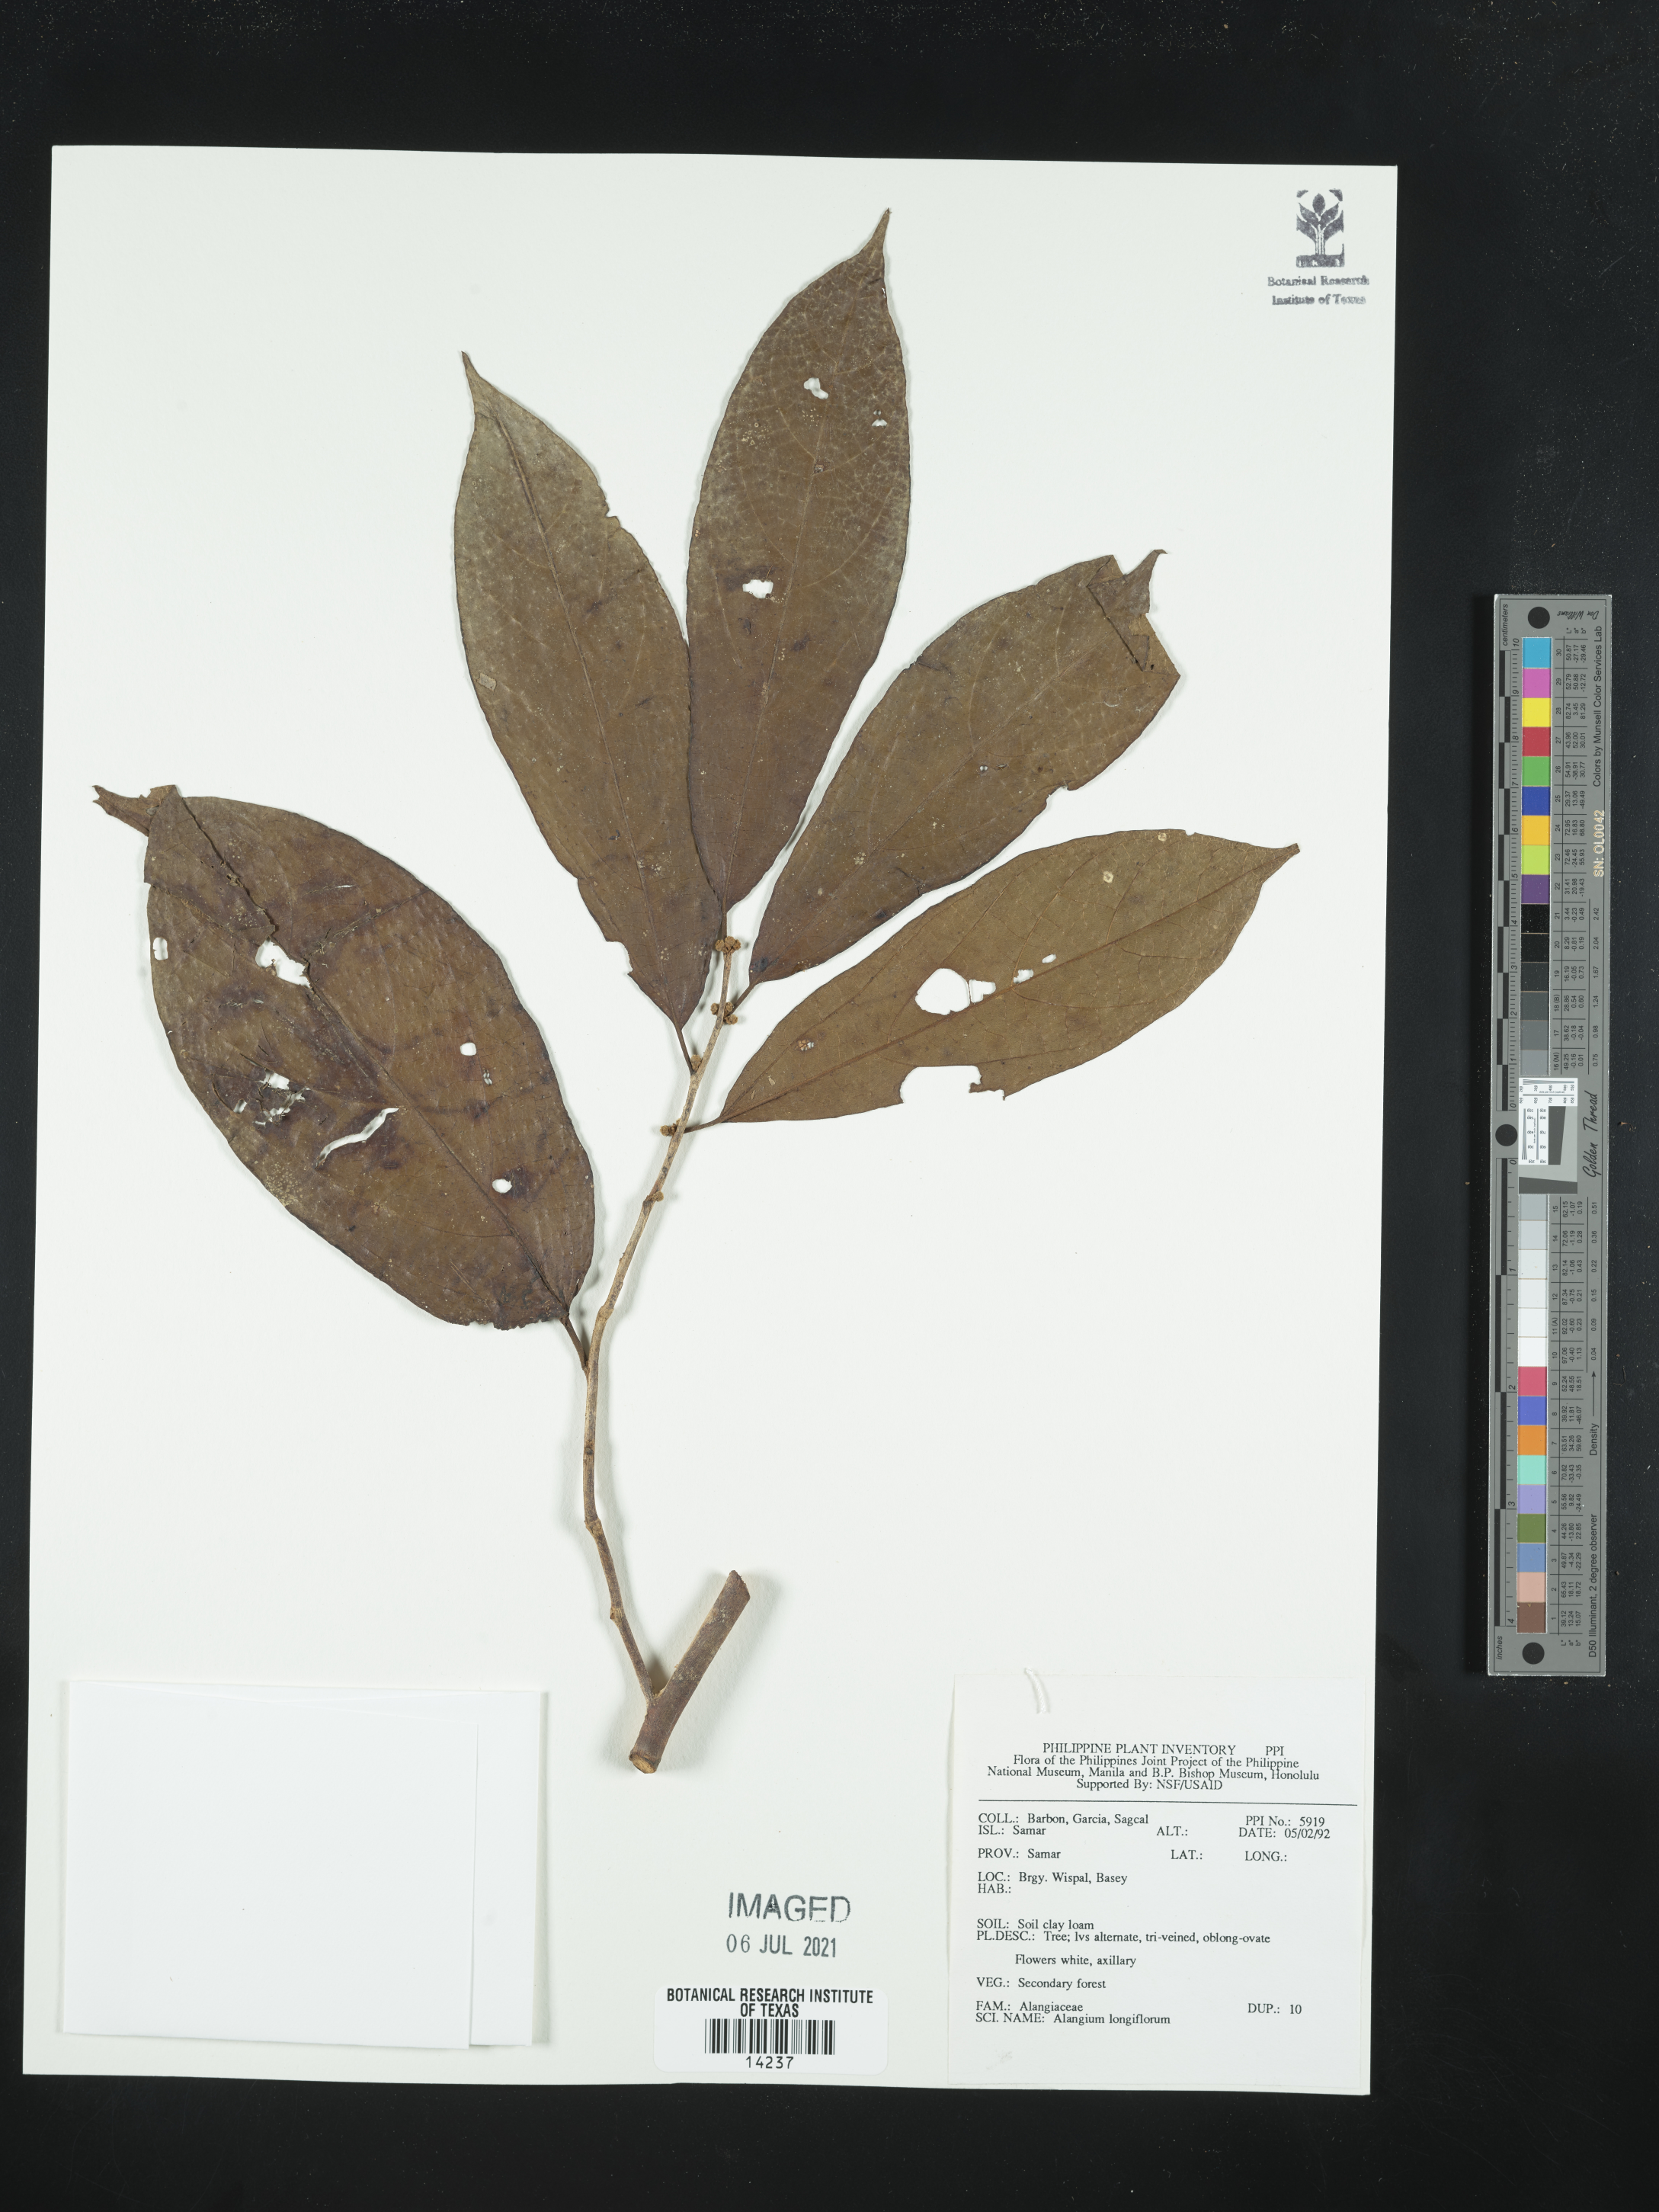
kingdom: Plantae
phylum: Tracheophyta
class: Magnoliopsida
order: Cornales
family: Cornaceae
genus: Alangium
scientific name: Alangium longiflorum
